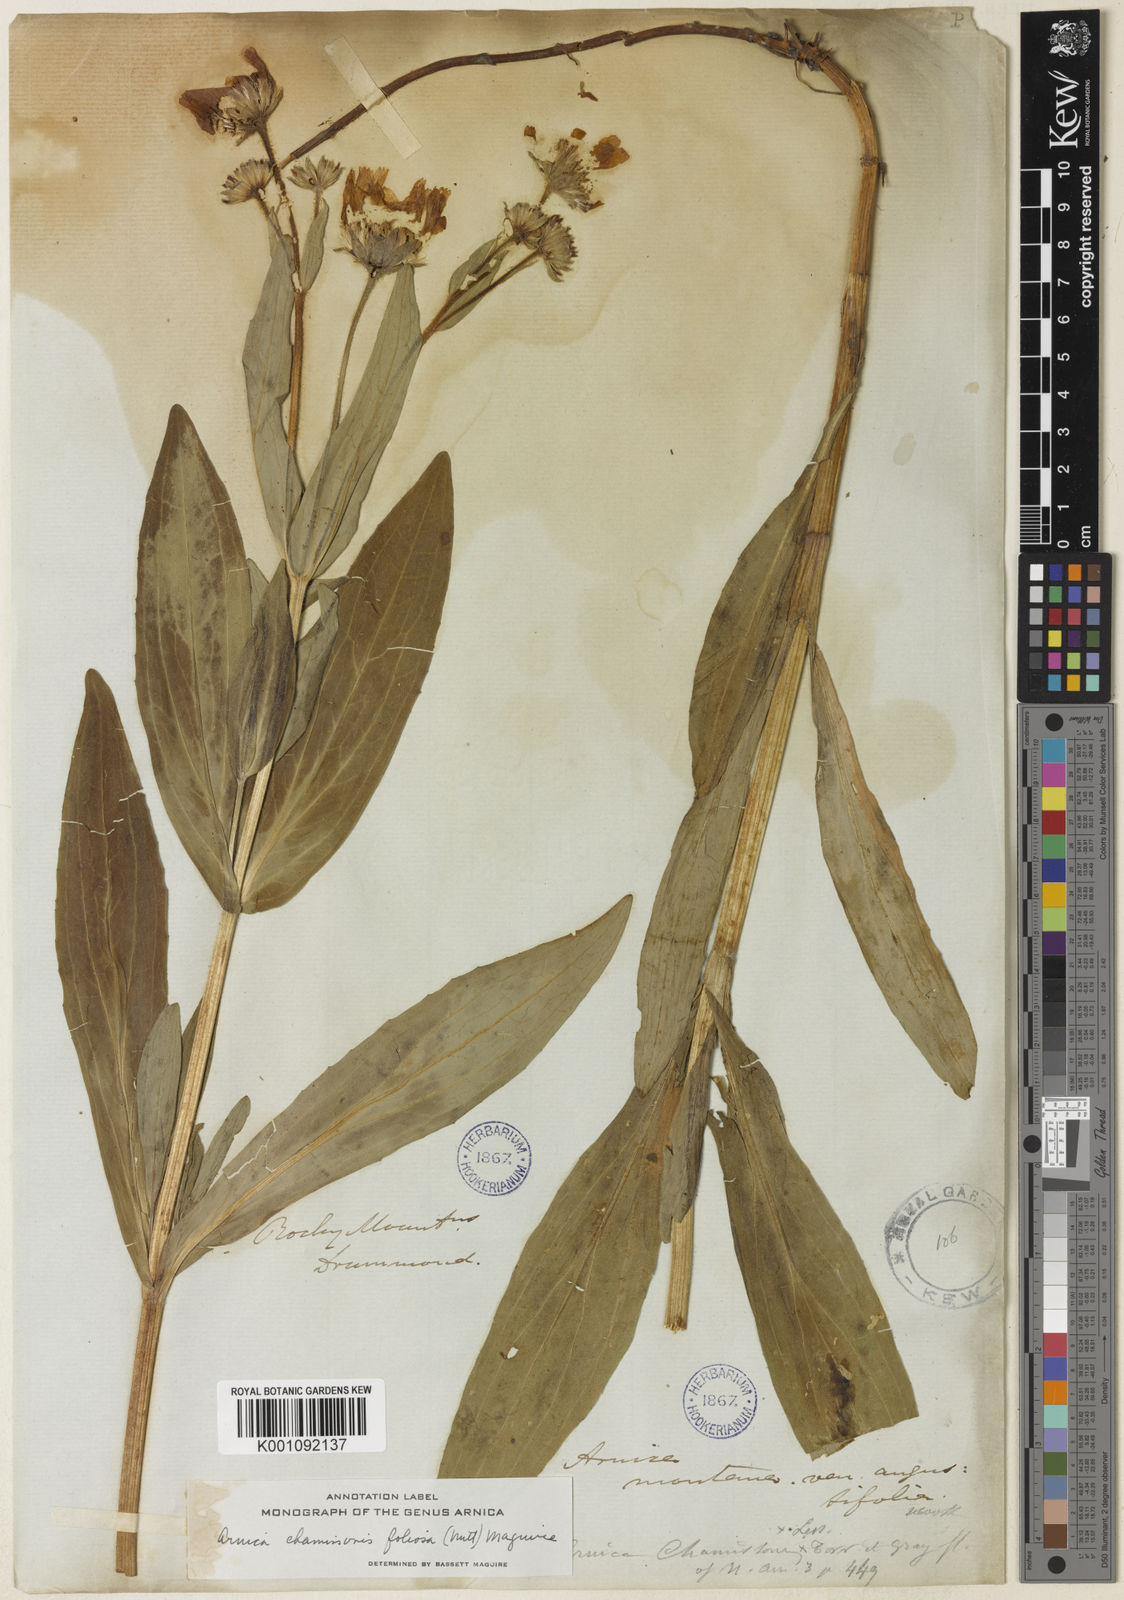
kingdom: Plantae
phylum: Tracheophyta
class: Magnoliopsida
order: Asterales
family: Asteraceae
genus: Arnica
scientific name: Arnica
